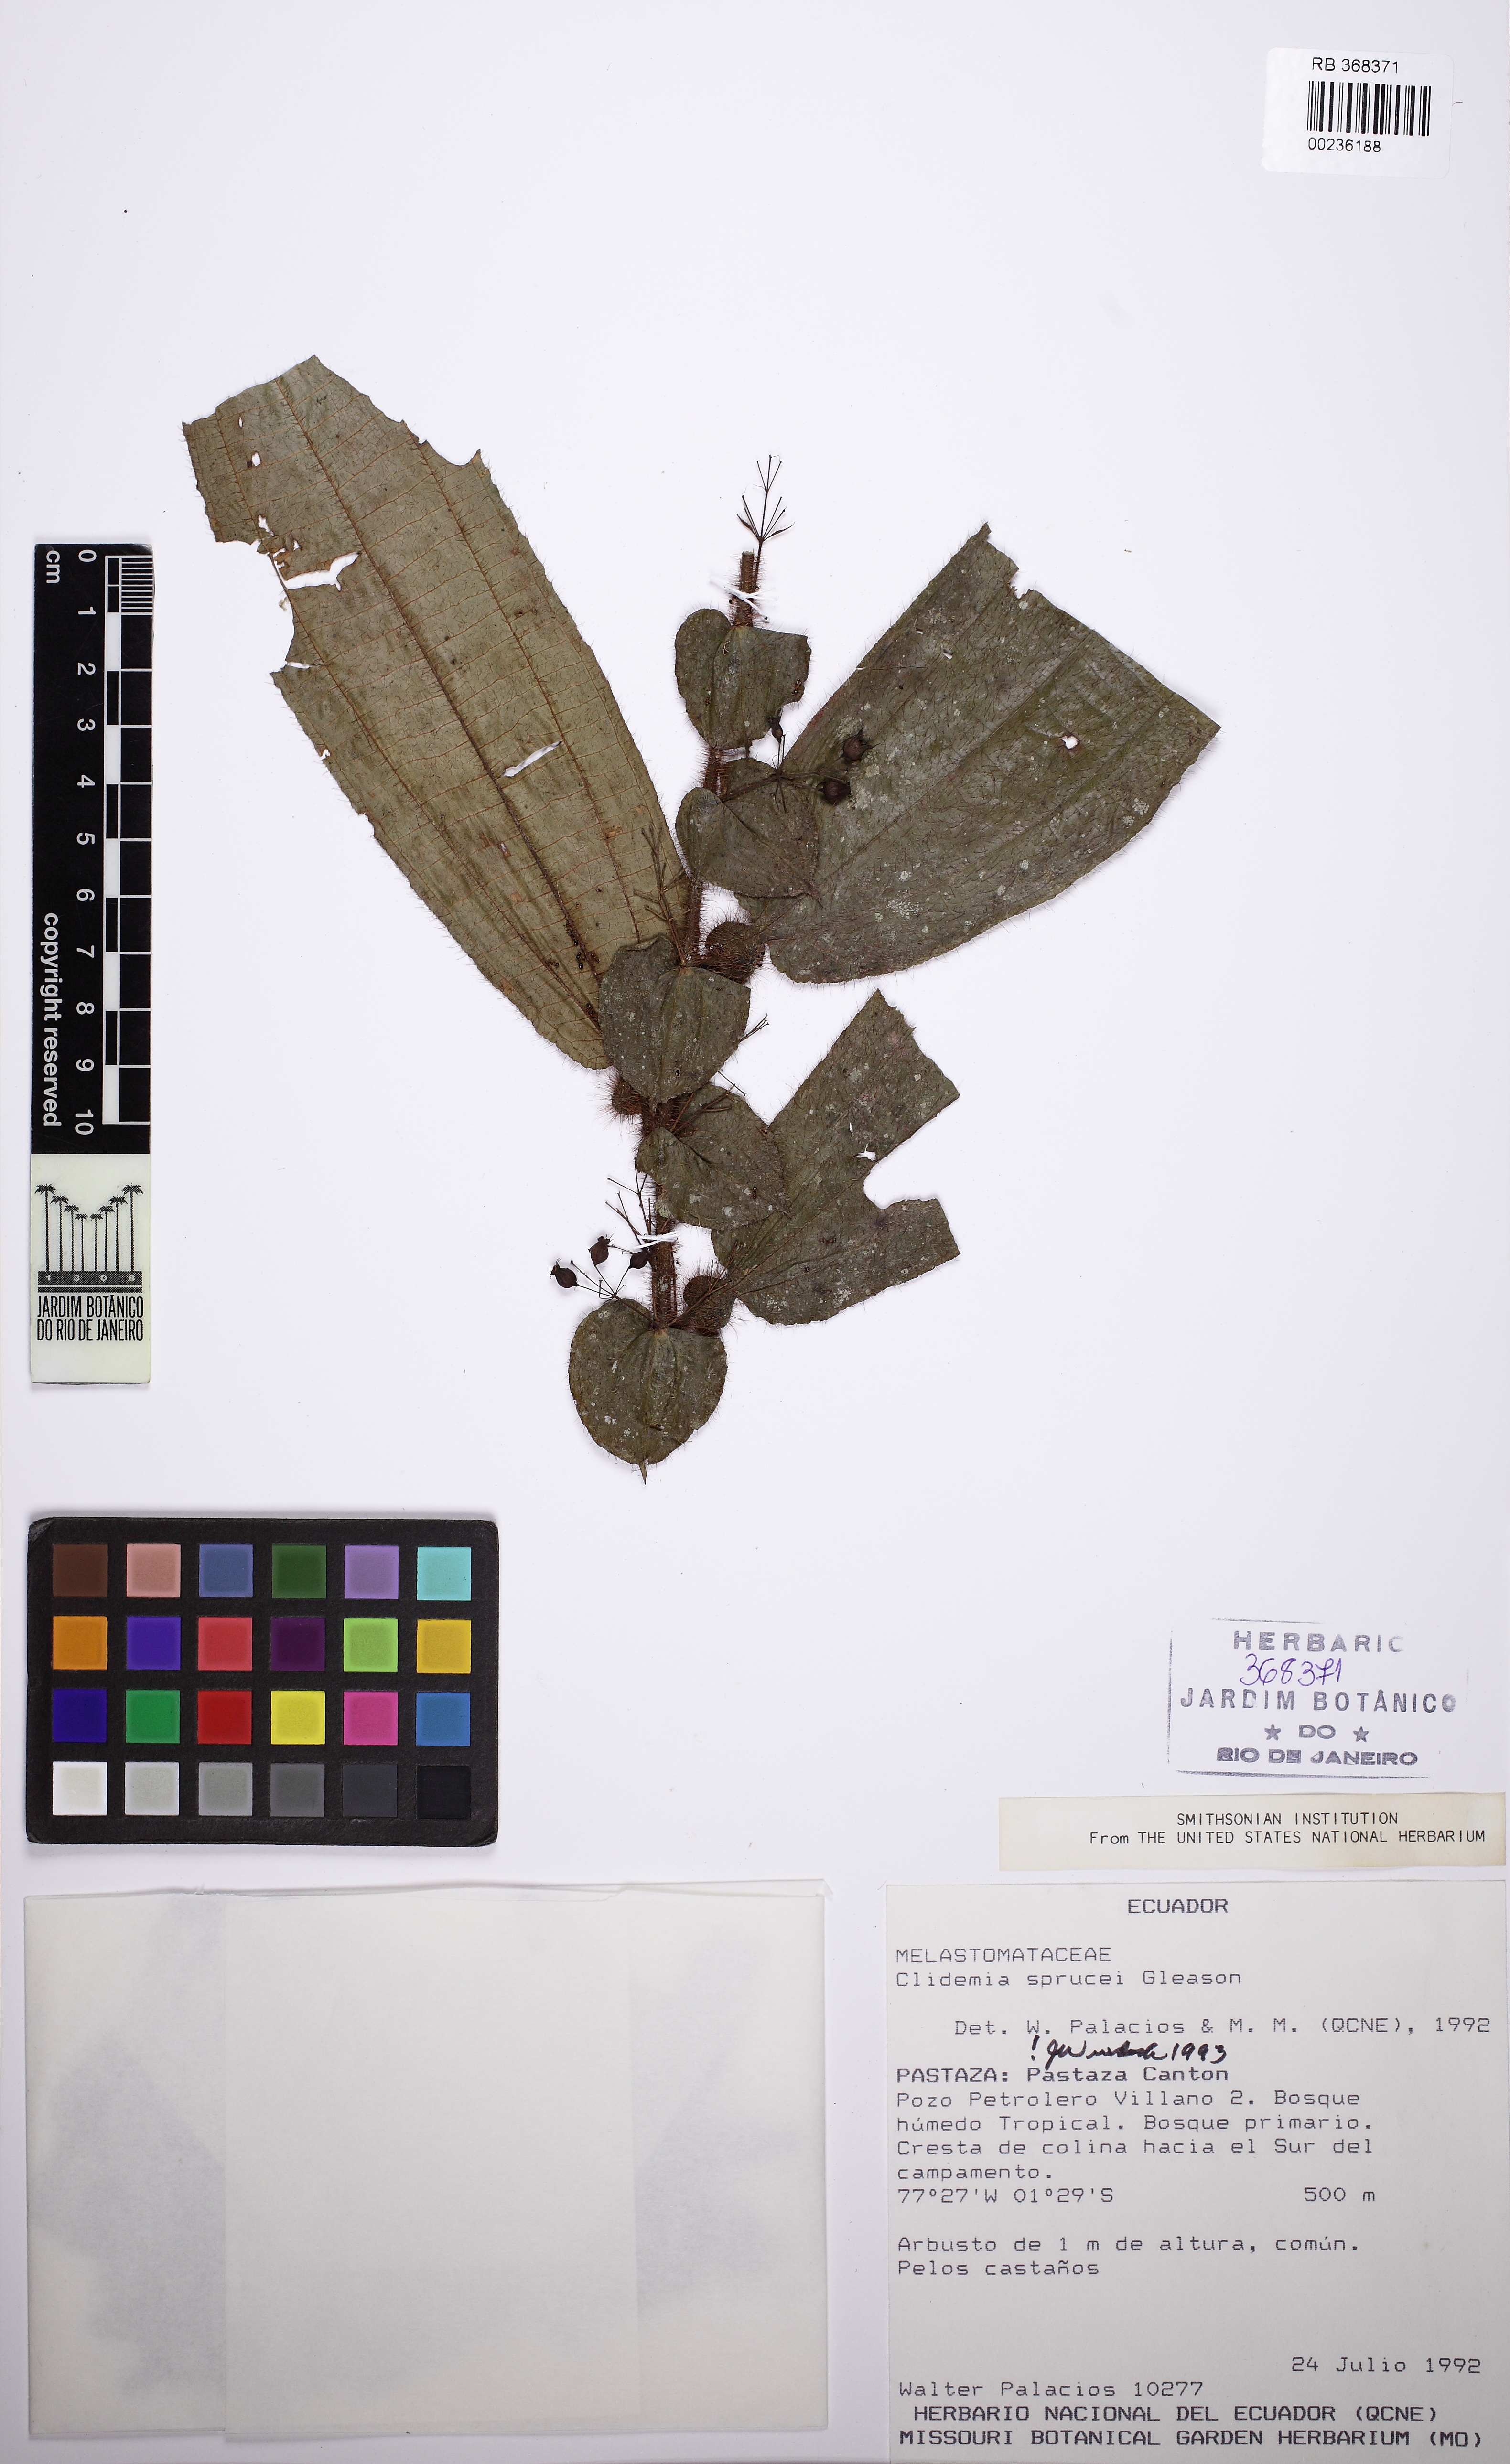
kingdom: Plantae
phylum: Tracheophyta
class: Magnoliopsida
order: Myrtales
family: Melastomataceae
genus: Miconia
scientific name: Miconia richardsprucei
